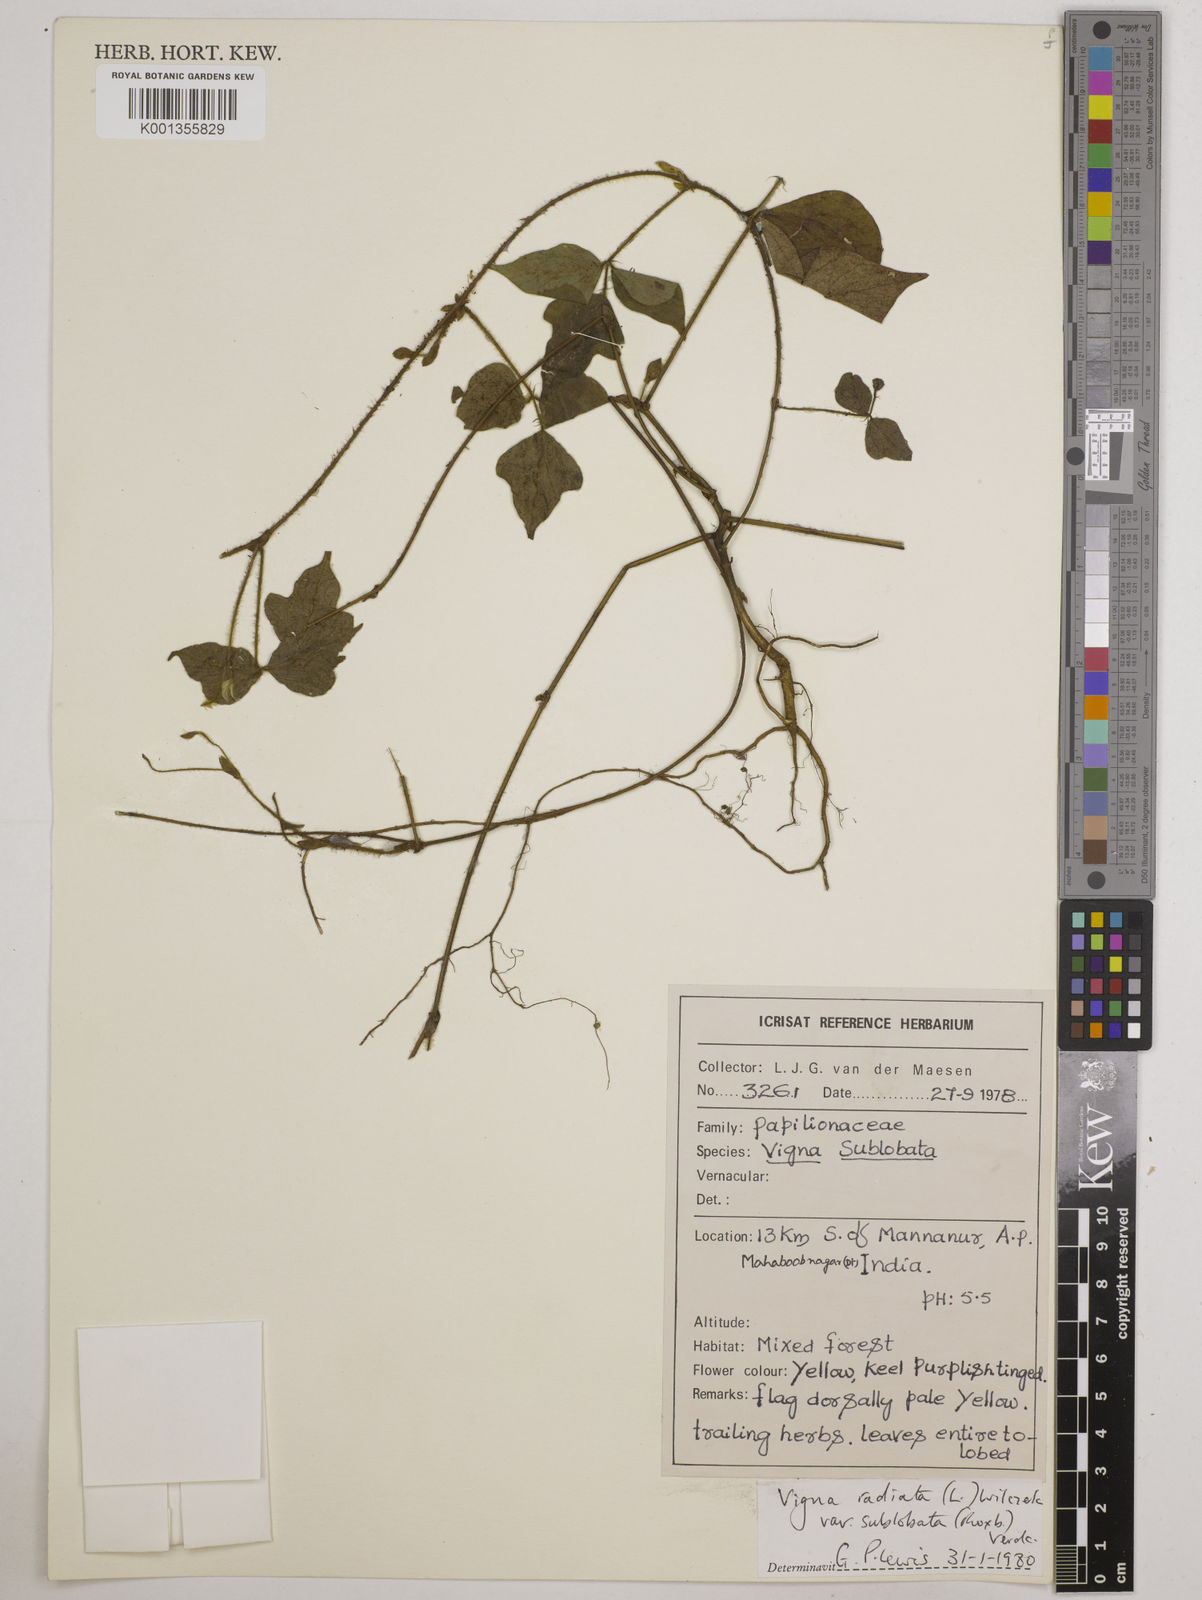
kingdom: Plantae
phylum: Tracheophyta
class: Magnoliopsida
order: Fabales
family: Fabaceae
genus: Vigna
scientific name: Vigna radiata
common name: Mung-bean
